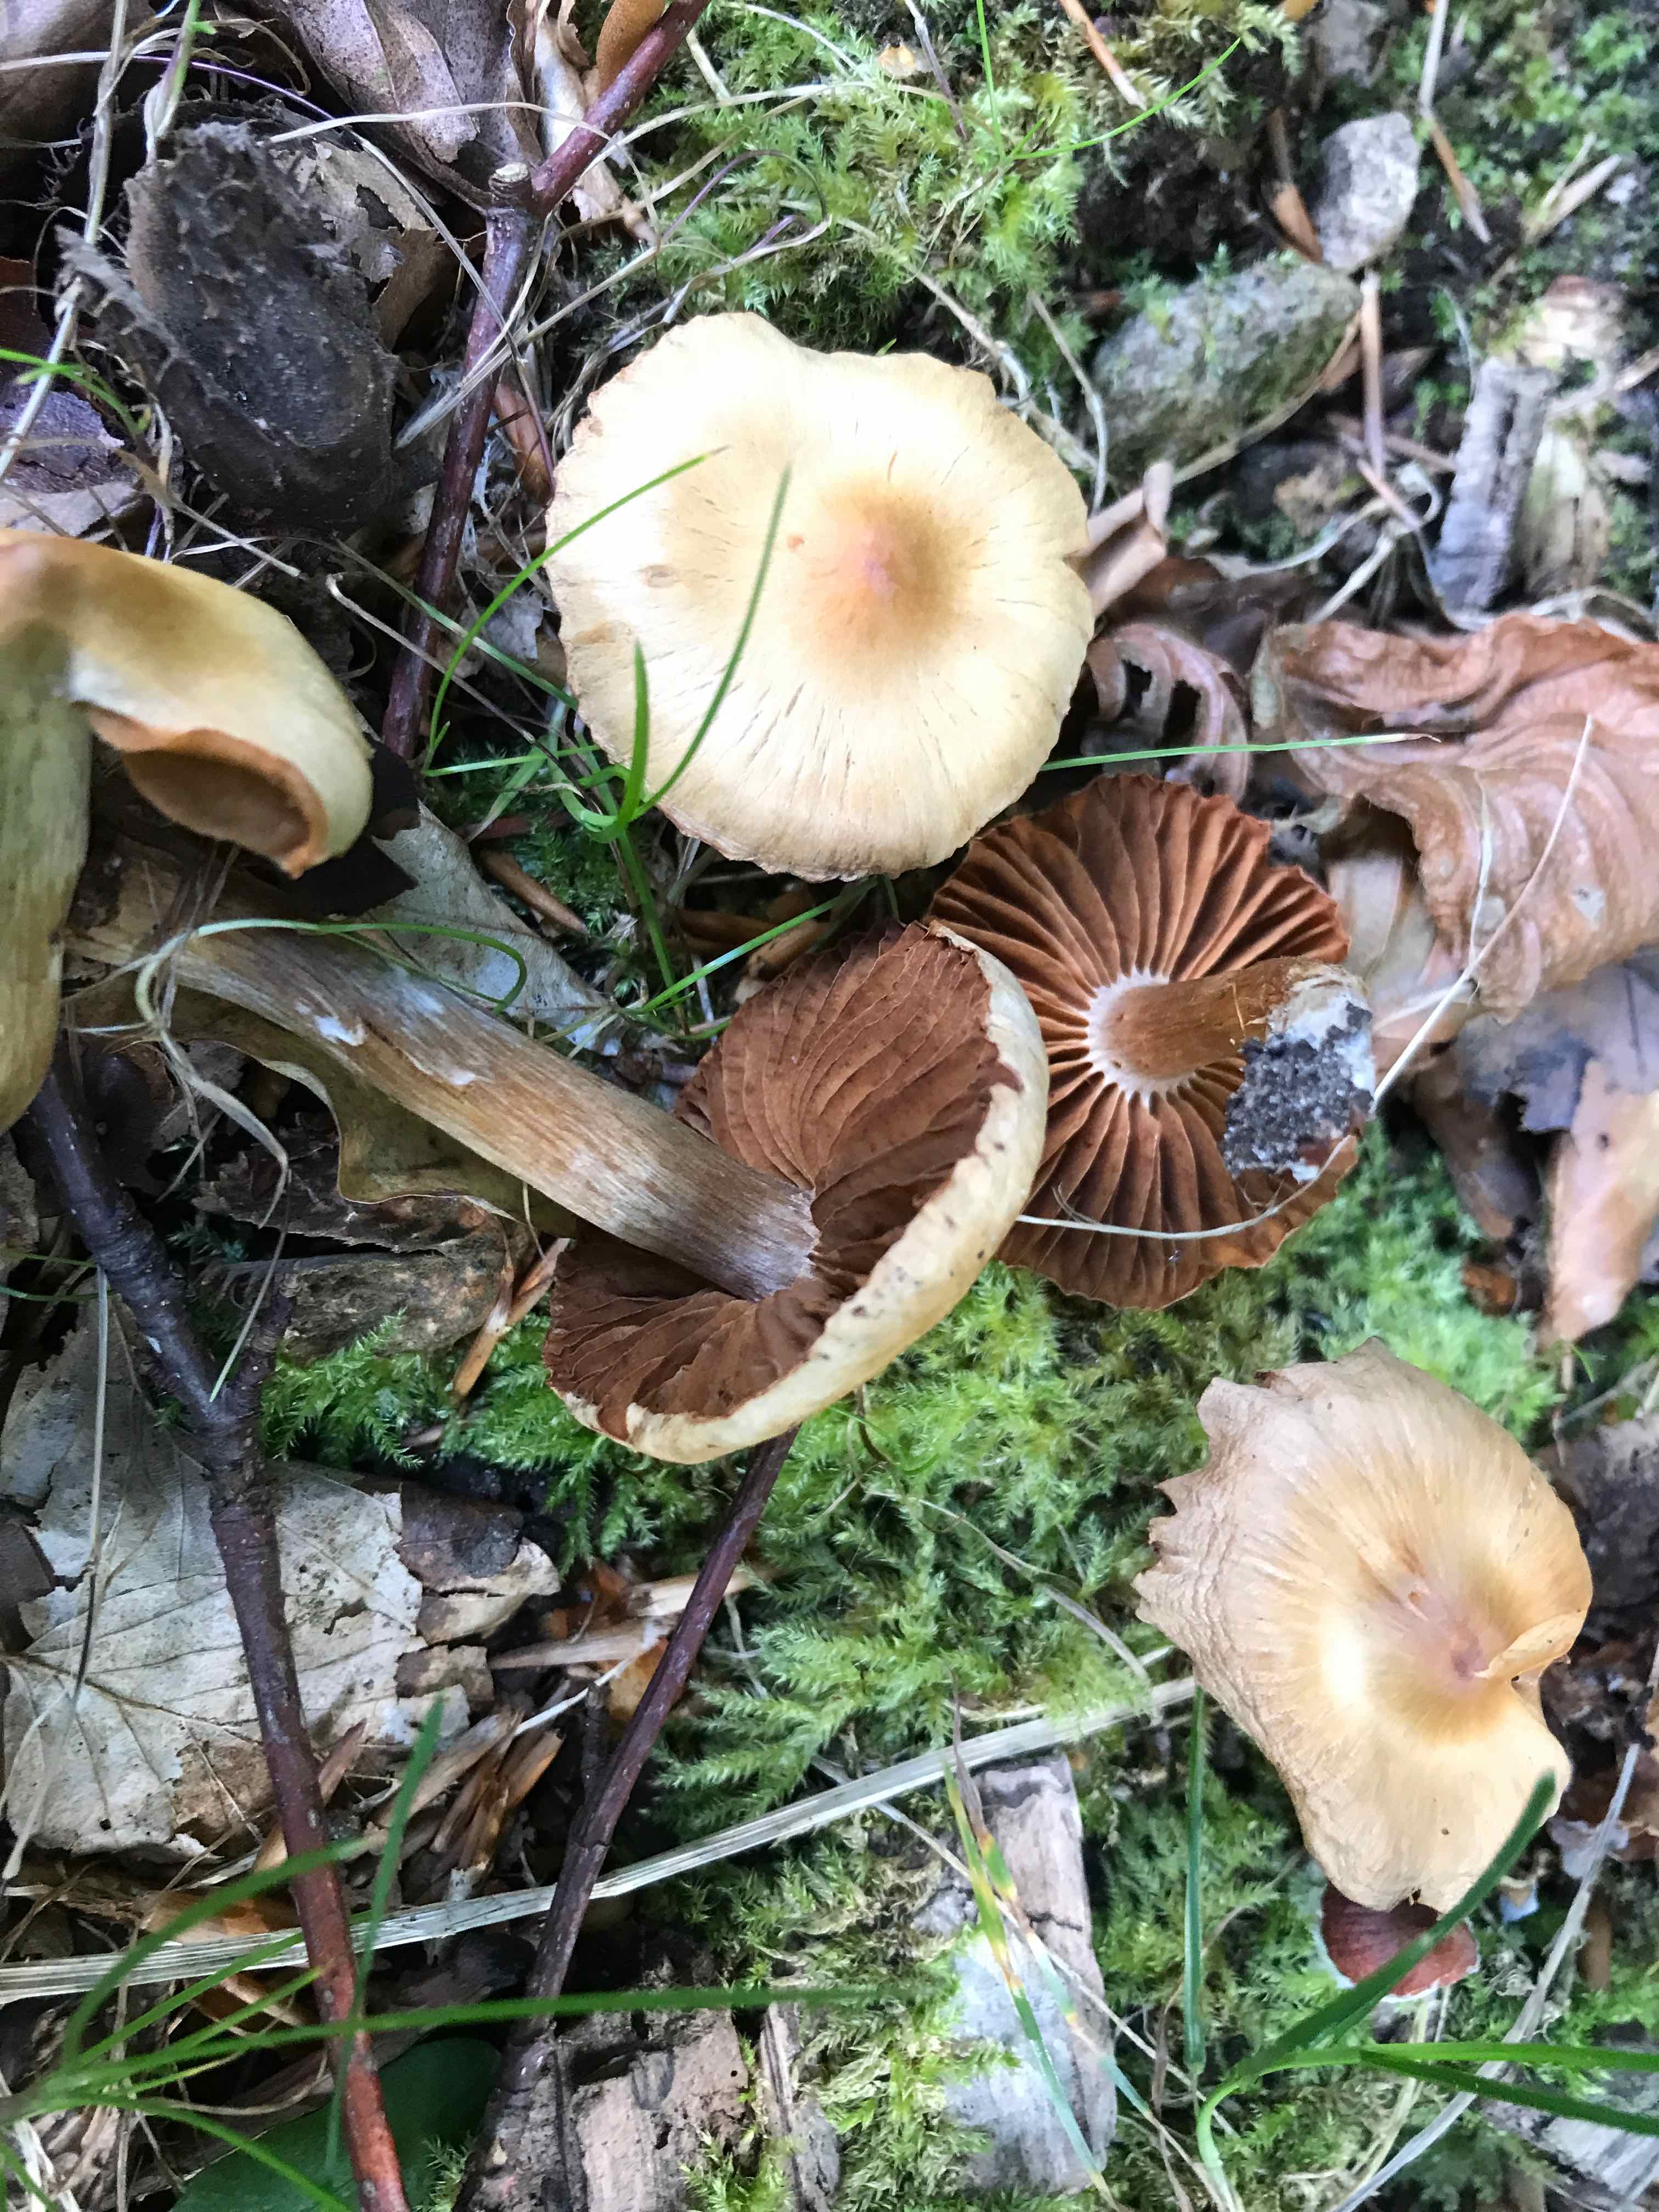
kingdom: Fungi
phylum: Basidiomycota
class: Agaricomycetes
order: Agaricales
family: Cortinariaceae
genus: Cortinarius
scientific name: Cortinarius hinnuleus
